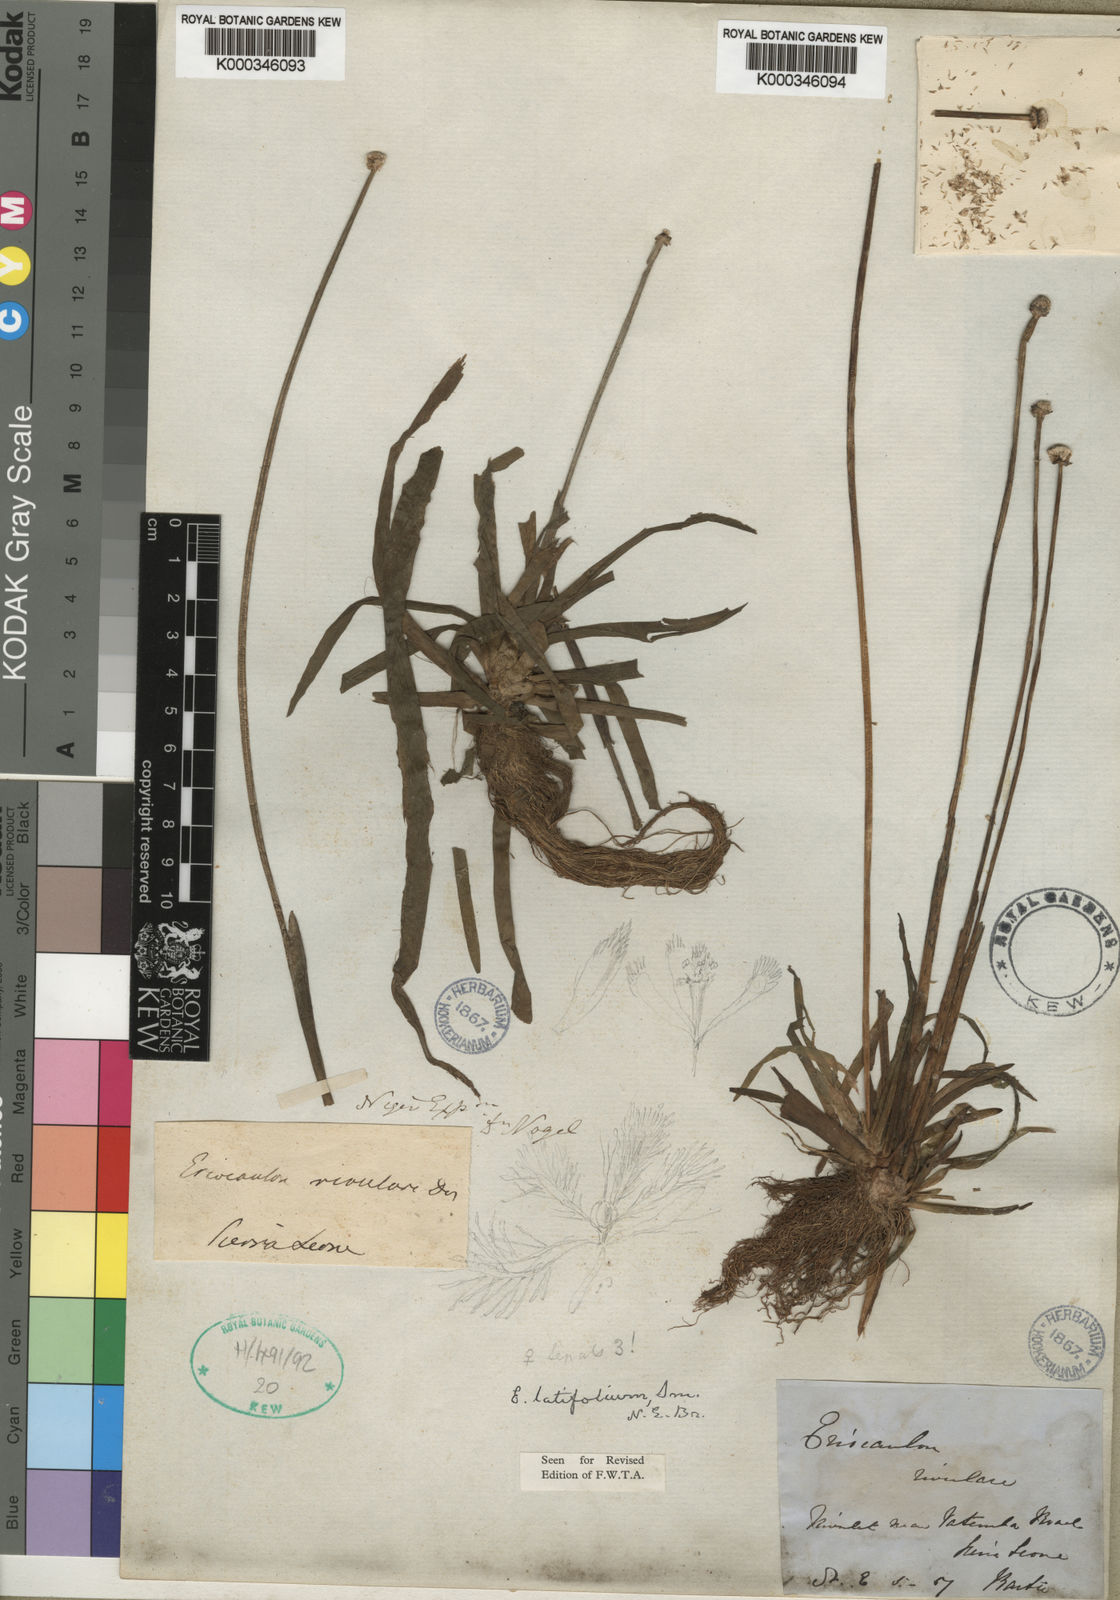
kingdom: Plantae
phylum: Tracheophyta
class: Liliopsida
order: Poales
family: Eriocaulaceae
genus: Eriocaulon
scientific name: Eriocaulon latifolium
